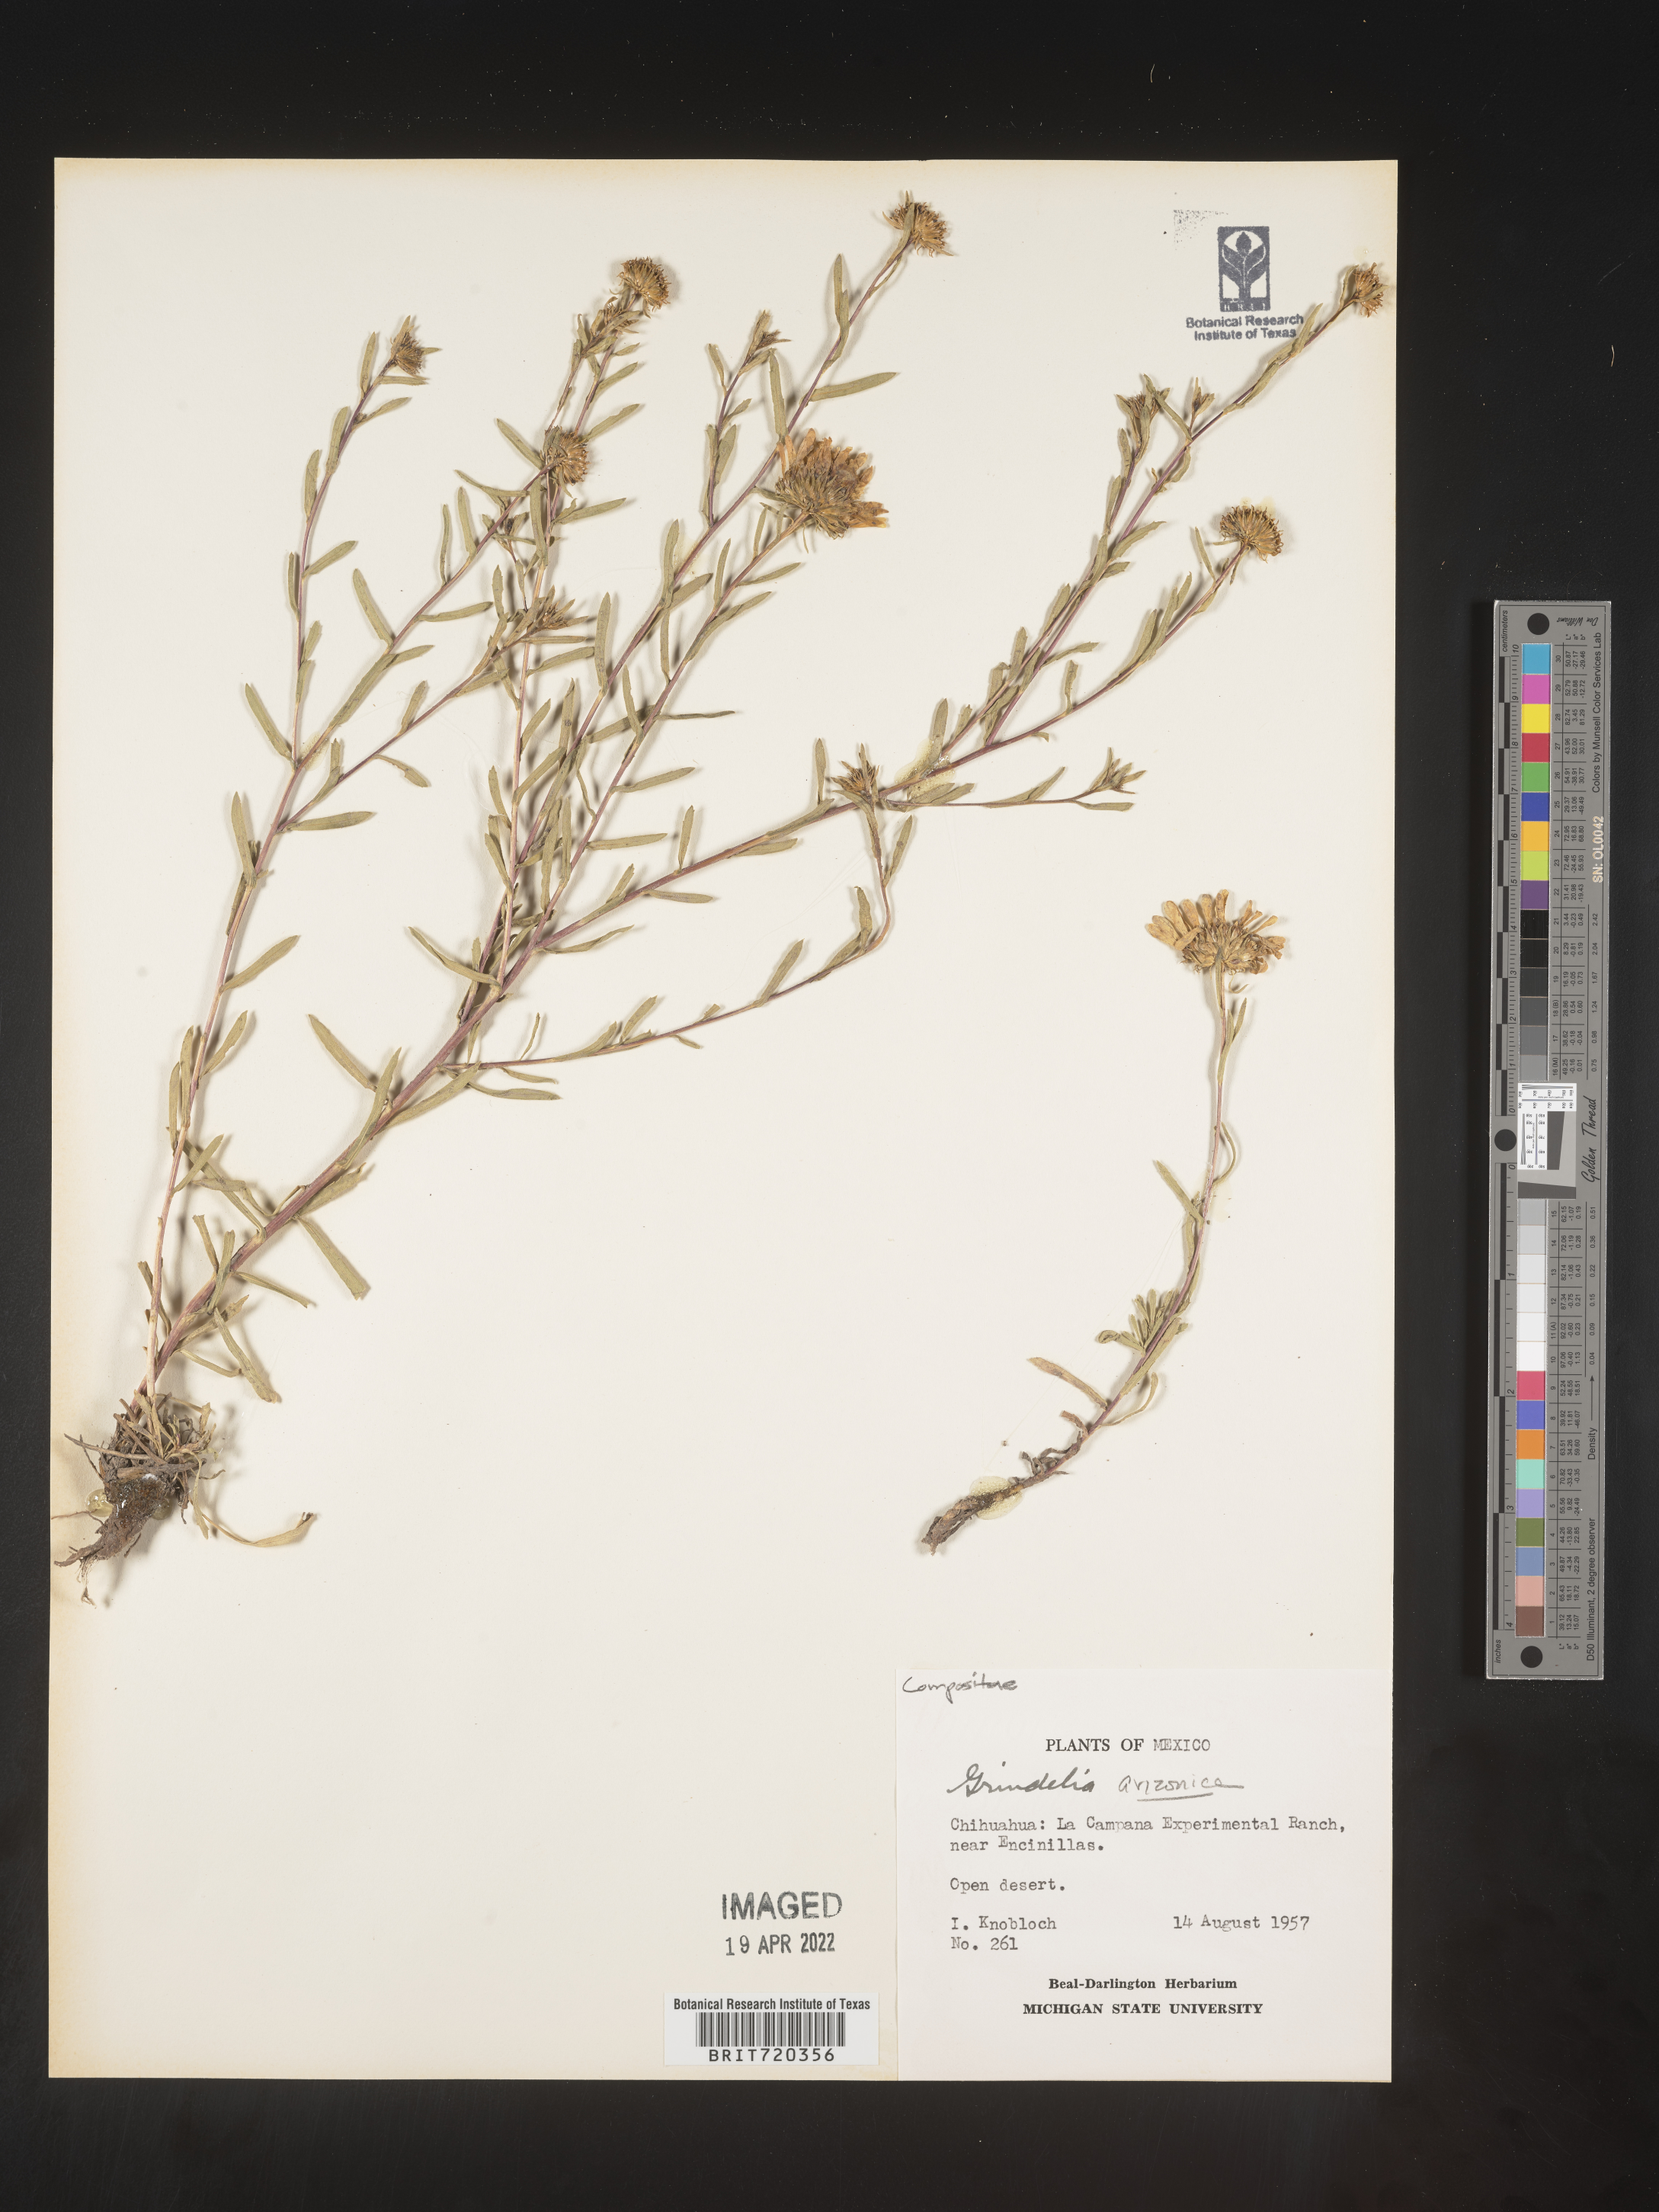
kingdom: Plantae
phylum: Tracheophyta
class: Magnoliopsida
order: Asterales
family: Asteraceae
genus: Grindelia
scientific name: Grindelia
